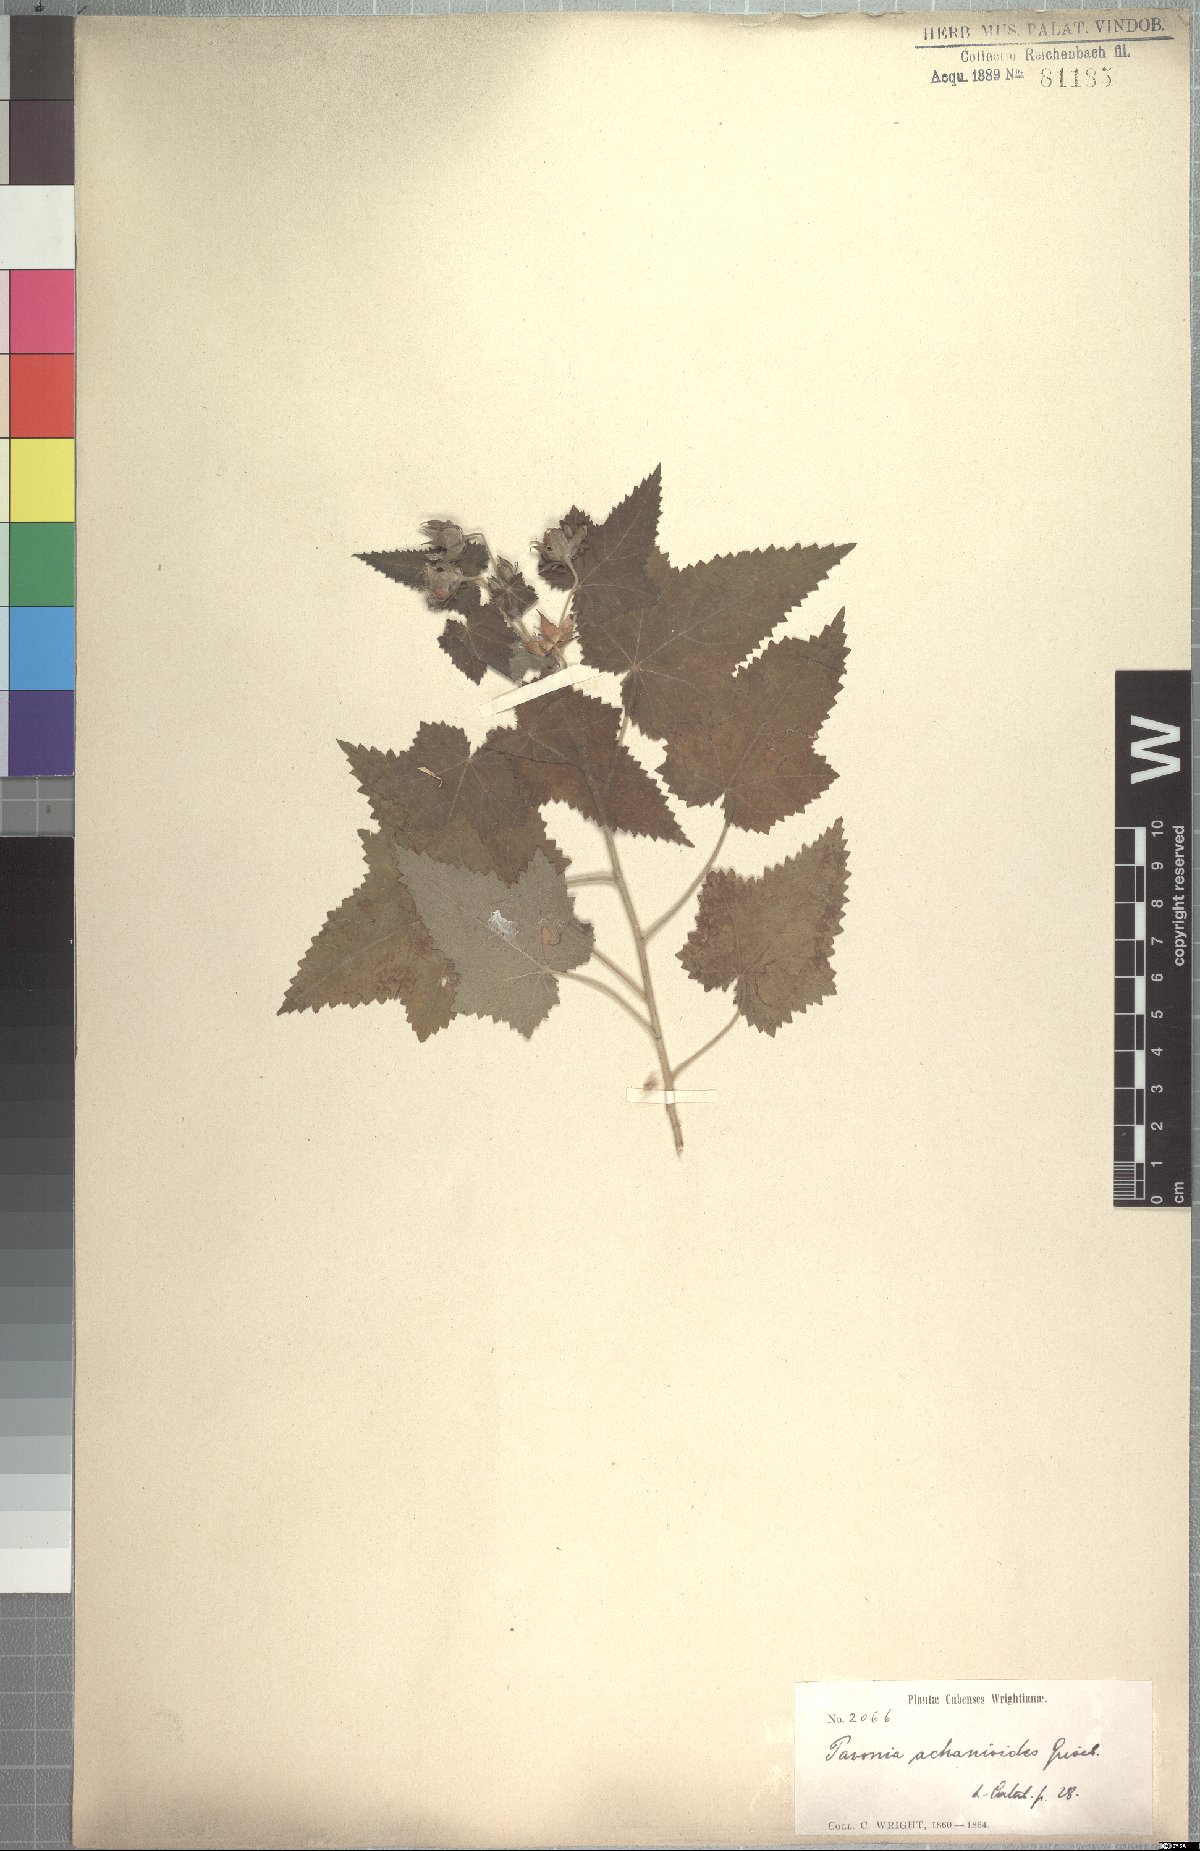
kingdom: Plantae
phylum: Tracheophyta
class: Magnoliopsida
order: Malvales
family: Malvaceae
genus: Pavonia
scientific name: Pavonia achanioides
